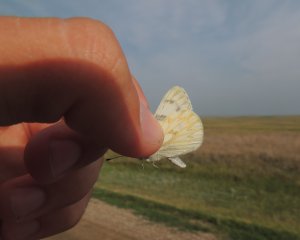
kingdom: Animalia
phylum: Arthropoda
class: Insecta
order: Lepidoptera
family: Pieridae
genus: Pontia
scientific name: Pontia protodice
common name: Checkered White
